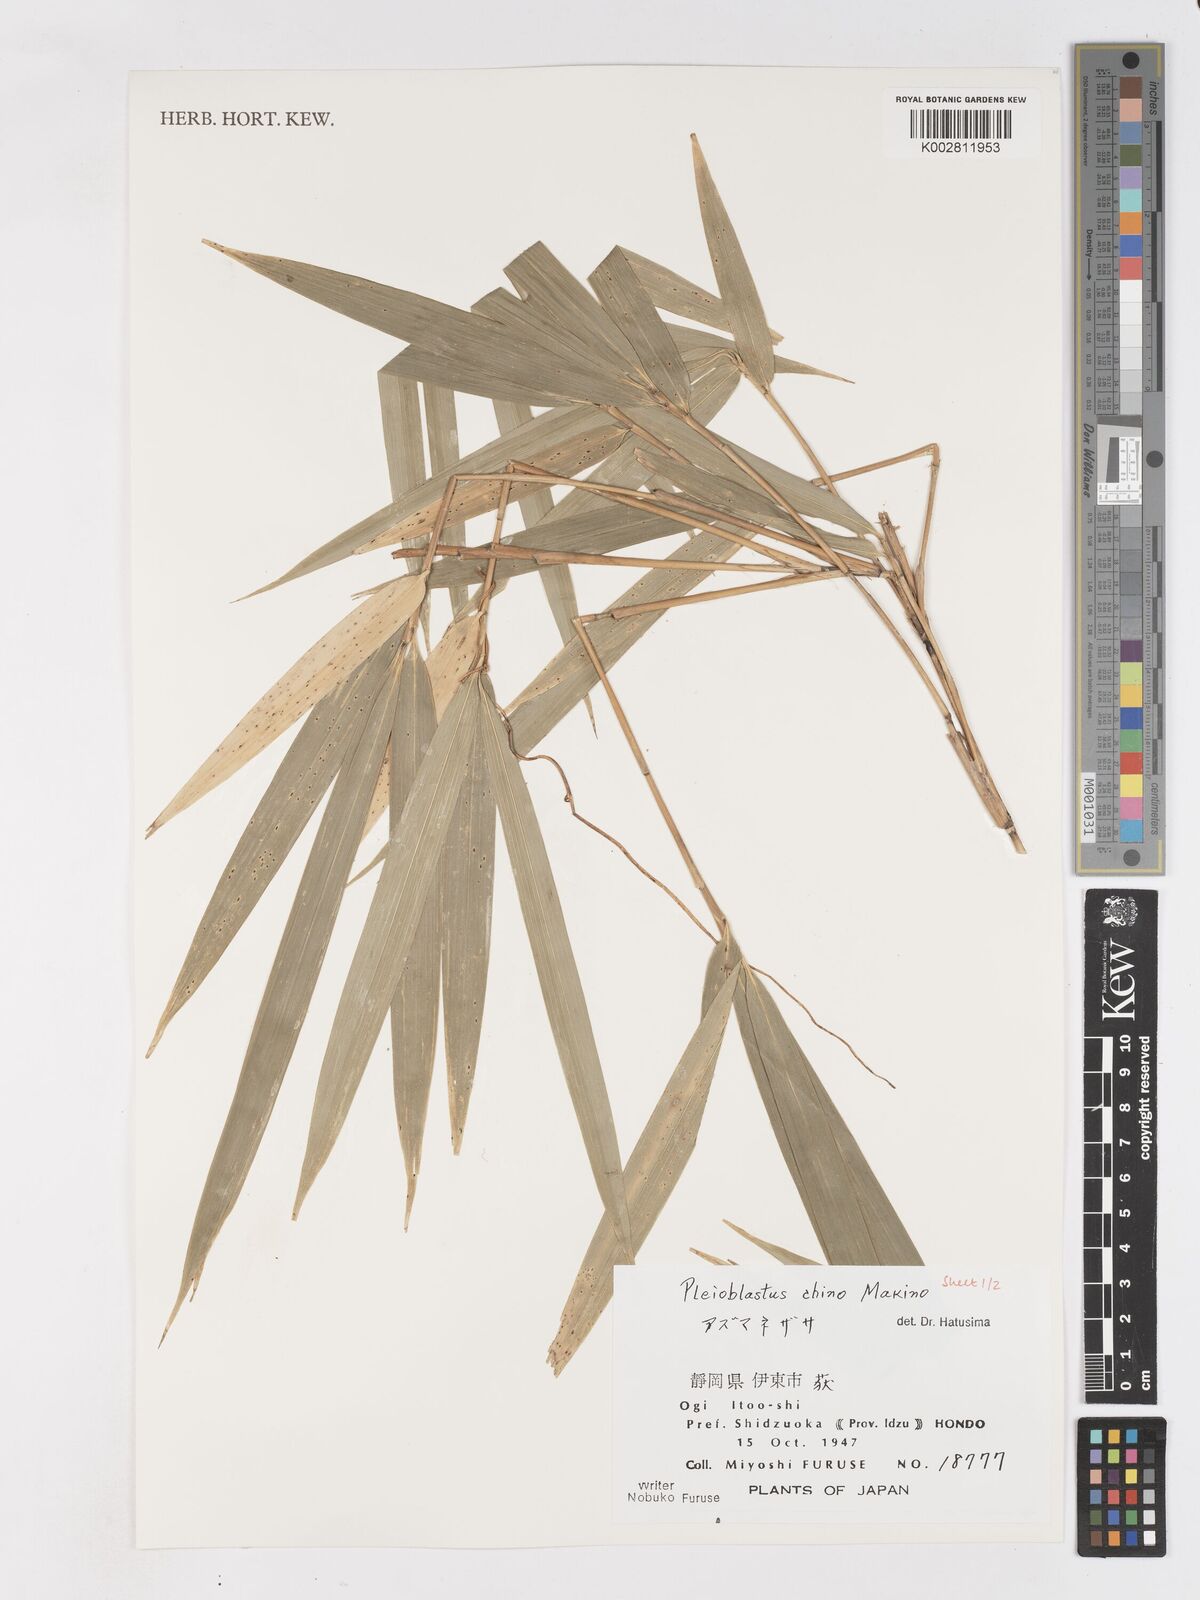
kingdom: Plantae
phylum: Tracheophyta
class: Liliopsida
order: Poales
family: Poaceae
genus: Pleioblastus
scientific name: Pleioblastus argenteostriatus
